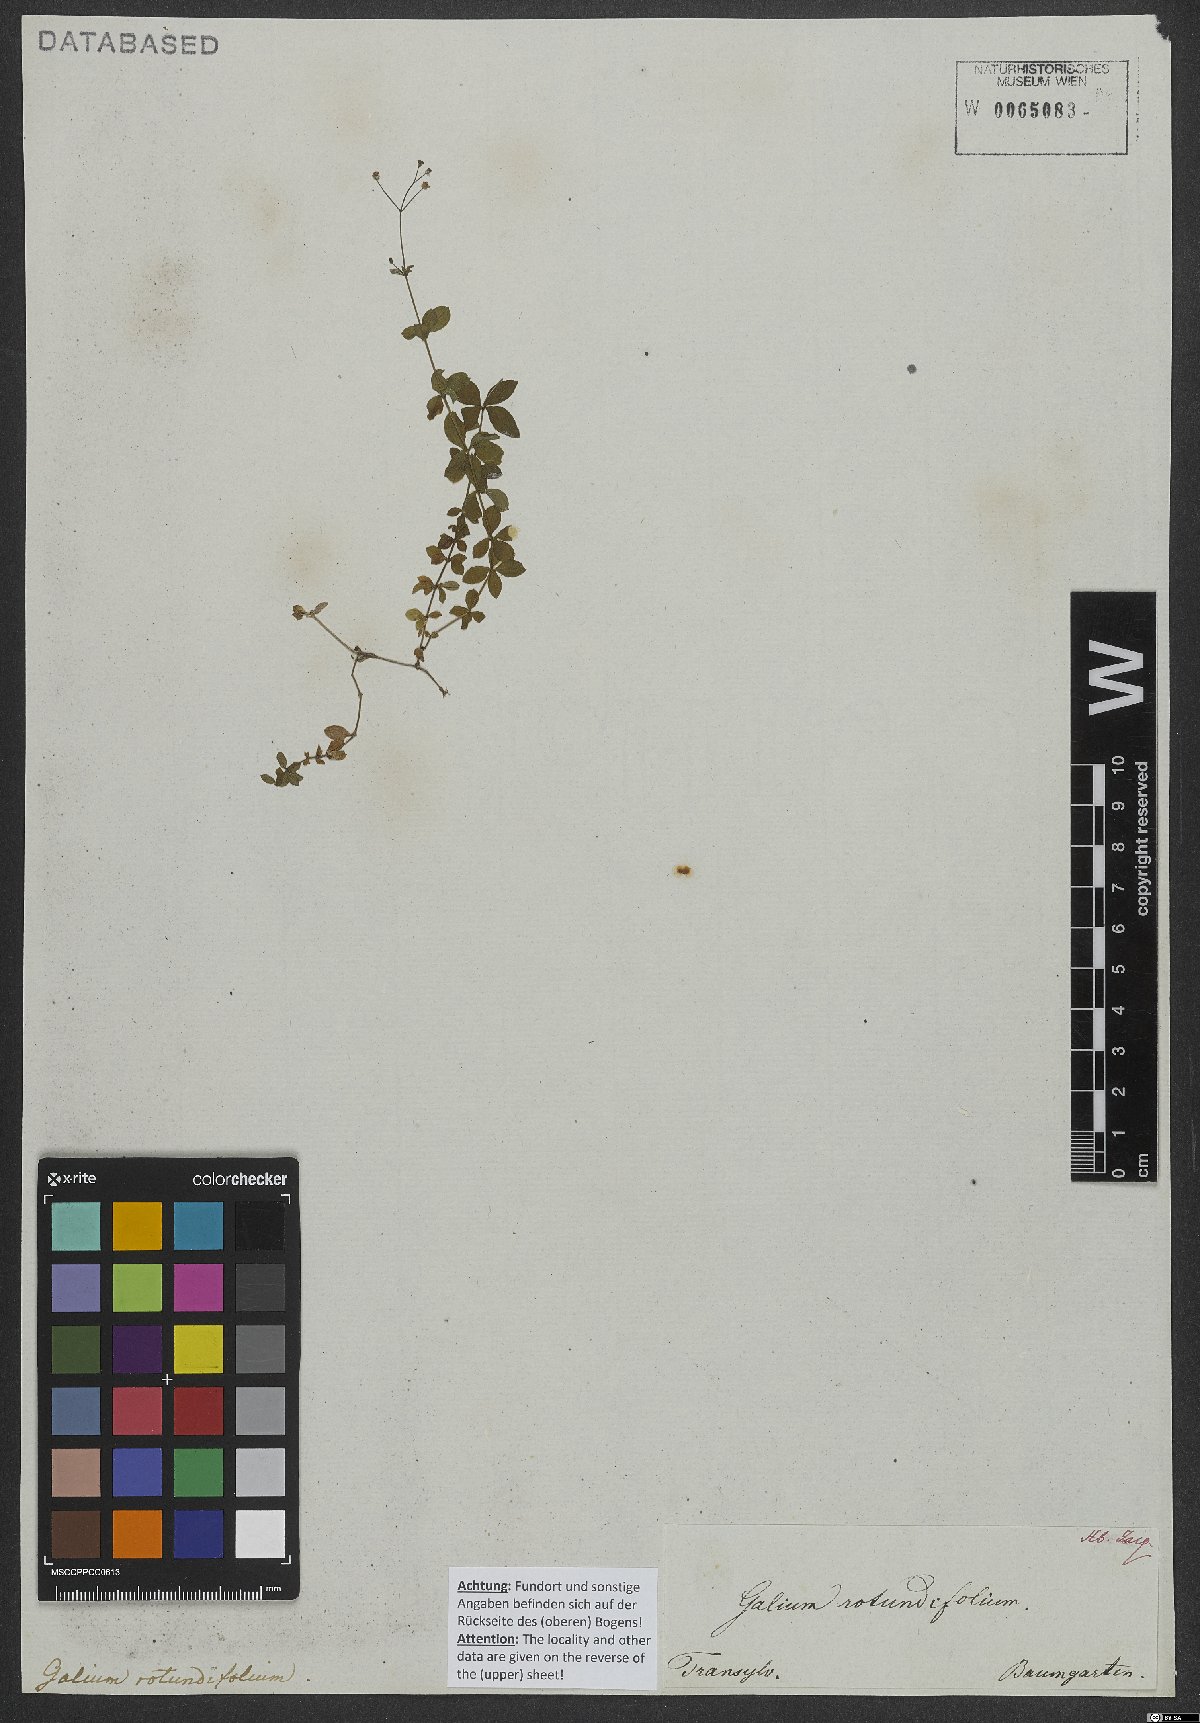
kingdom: Plantae
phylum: Tracheophyta
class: Magnoliopsida
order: Gentianales
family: Rubiaceae
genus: Galium
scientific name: Galium rotundifolium
